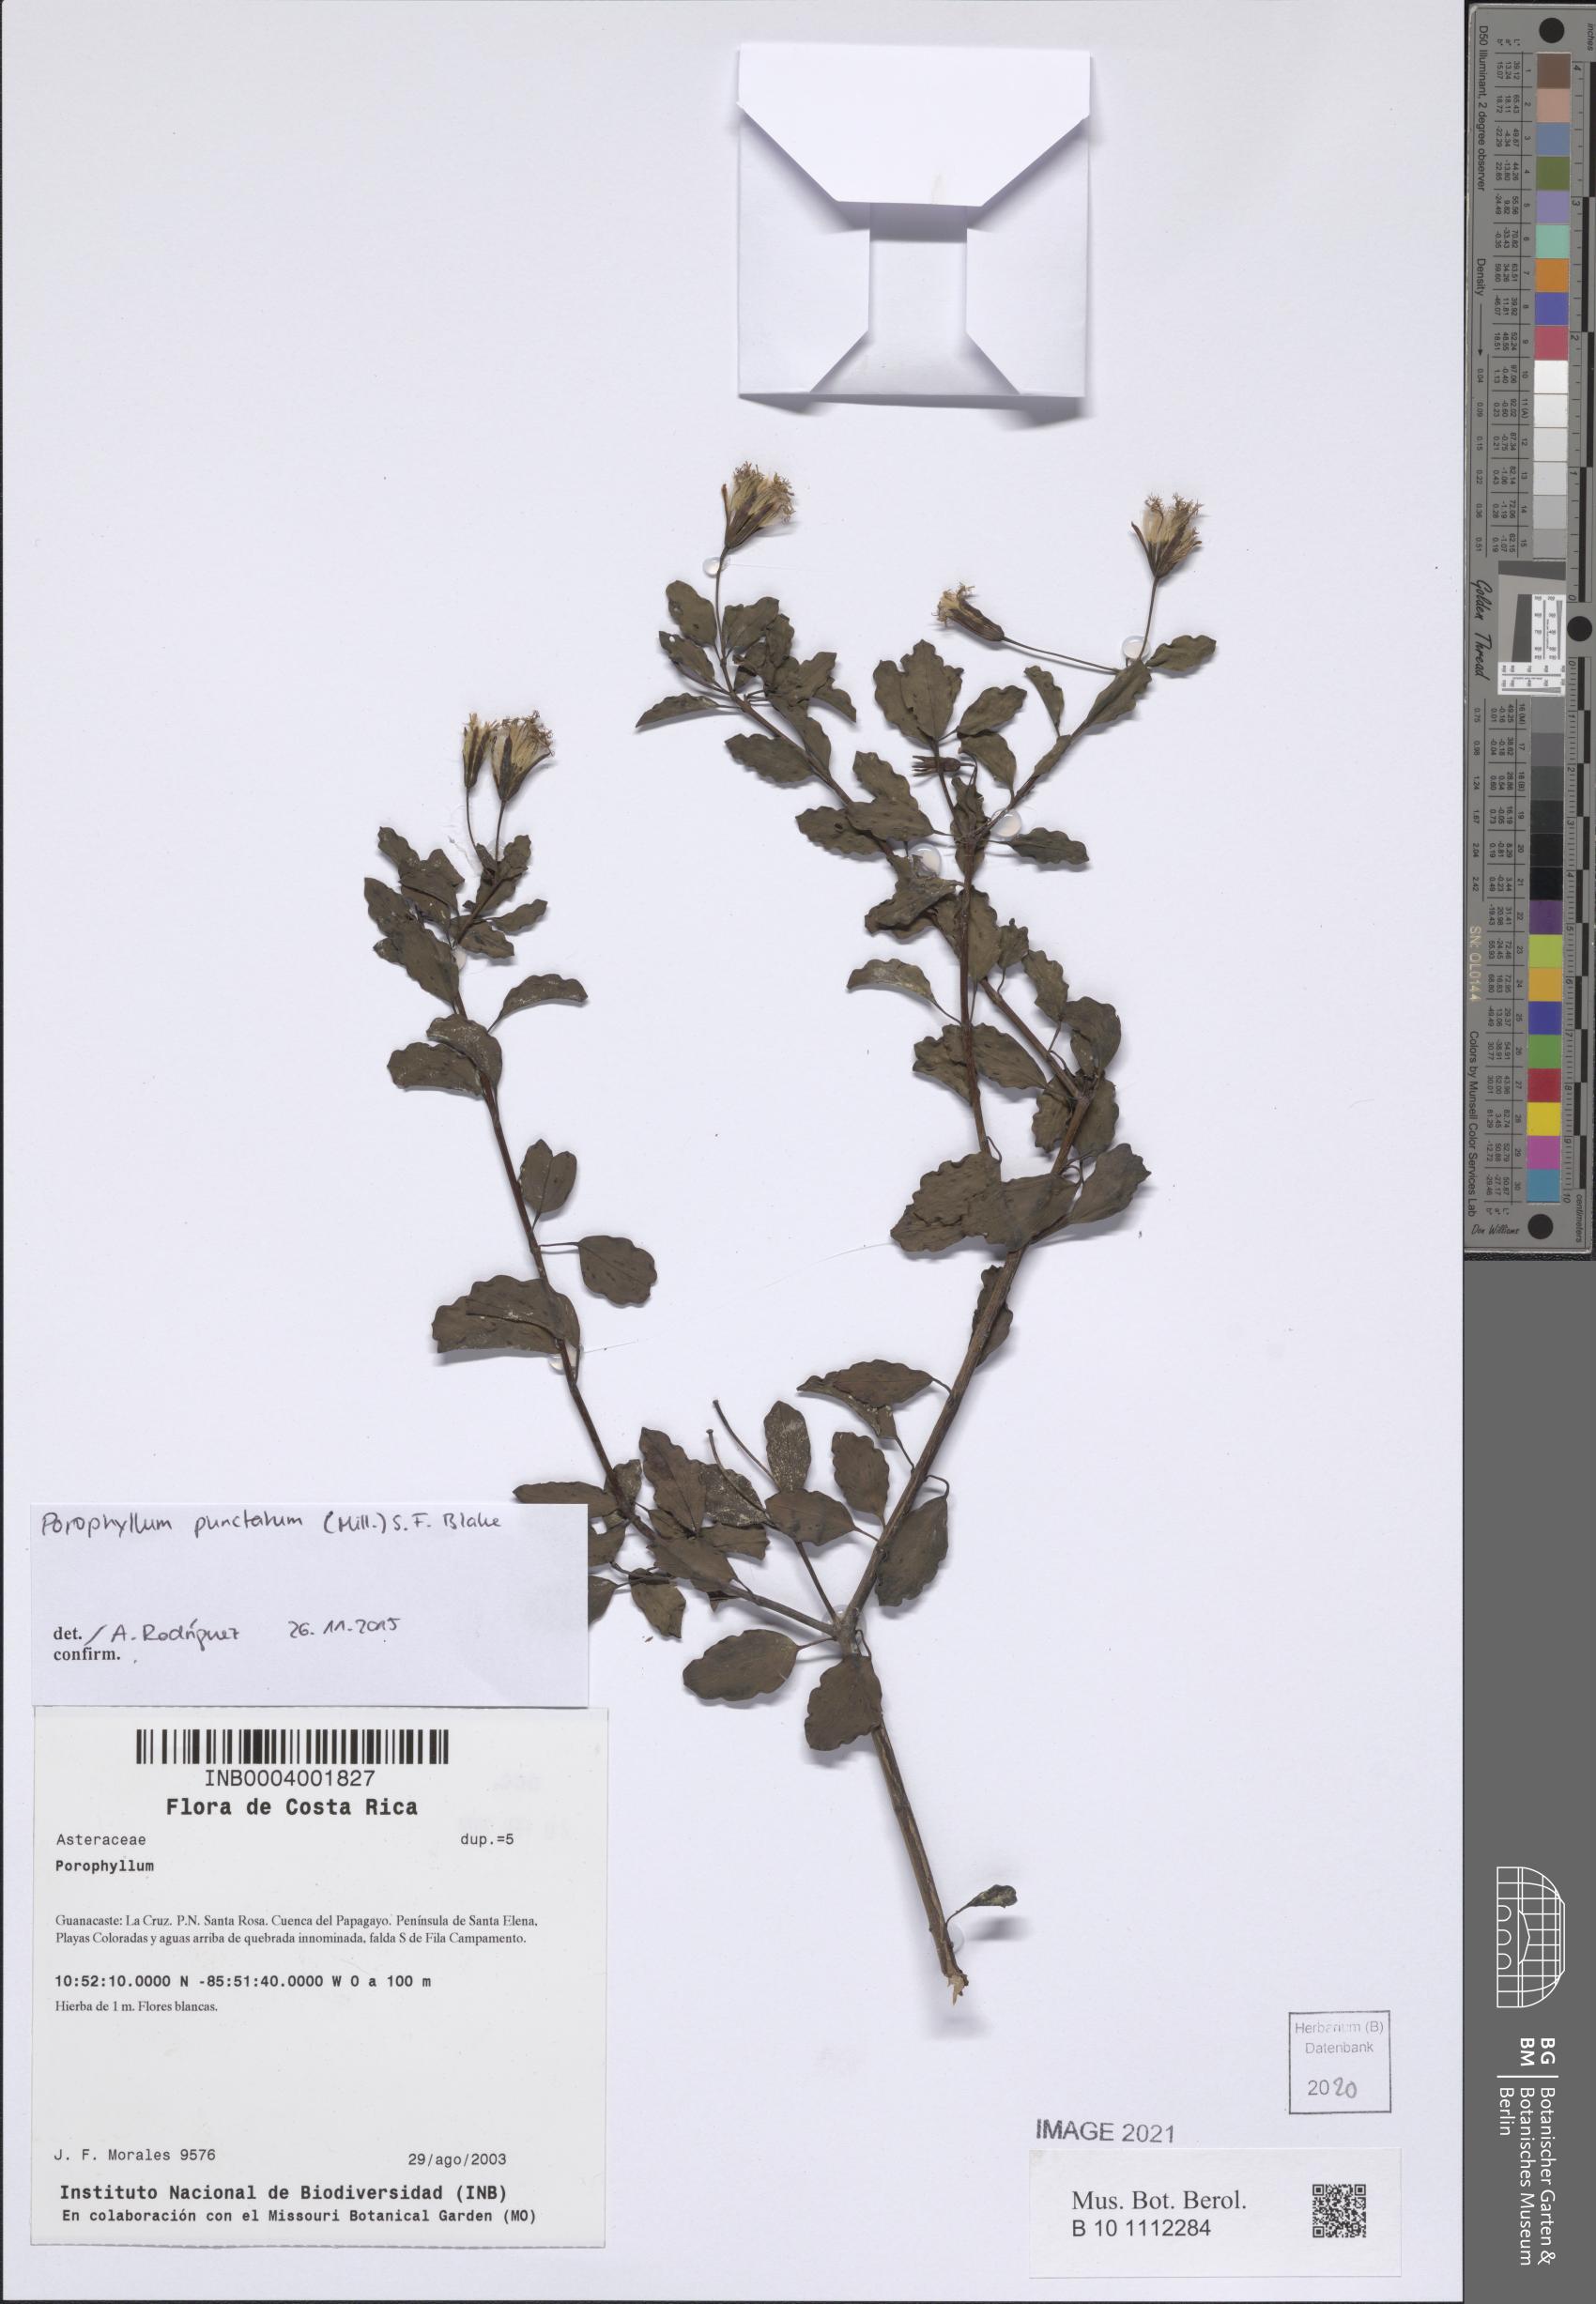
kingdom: Plantae
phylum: Tracheophyta
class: Magnoliopsida
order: Asterales
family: Asteraceae
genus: Porophyllum
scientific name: Porophyllum punctatum
